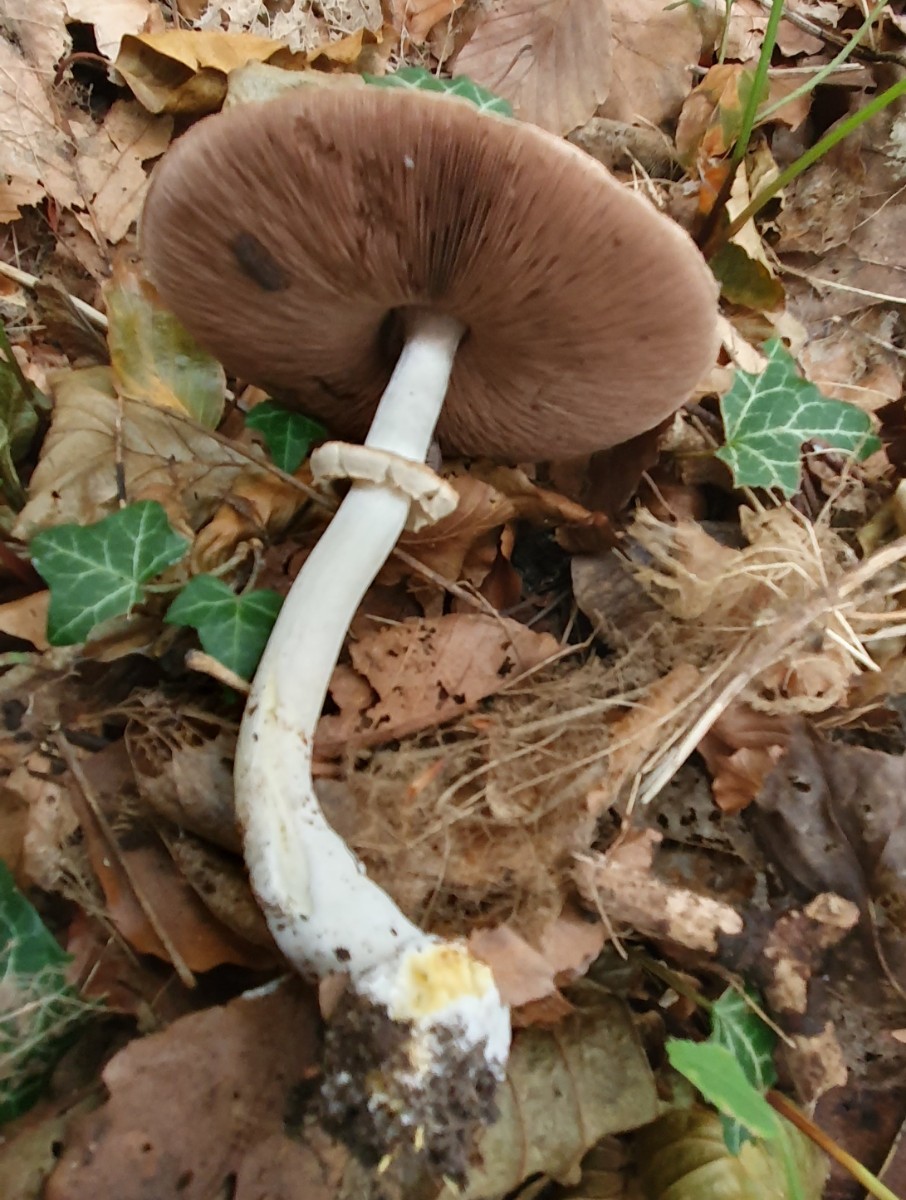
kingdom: Fungi
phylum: Basidiomycota
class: Agaricomycetes
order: Agaricales
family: Agaricaceae
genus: Agaricus
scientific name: Agaricus moelleri
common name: perlehøne-champignon
